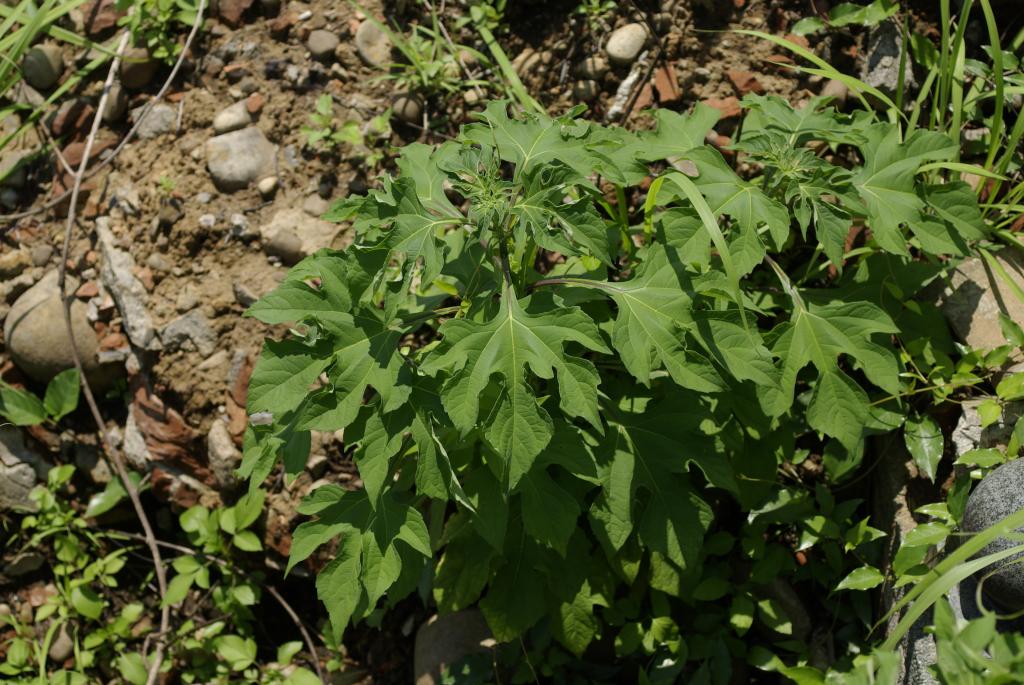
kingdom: Plantae
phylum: Tracheophyta
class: Magnoliopsida
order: Asterales
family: Asteraceae
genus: Tithonia
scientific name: Tithonia diversifolia
